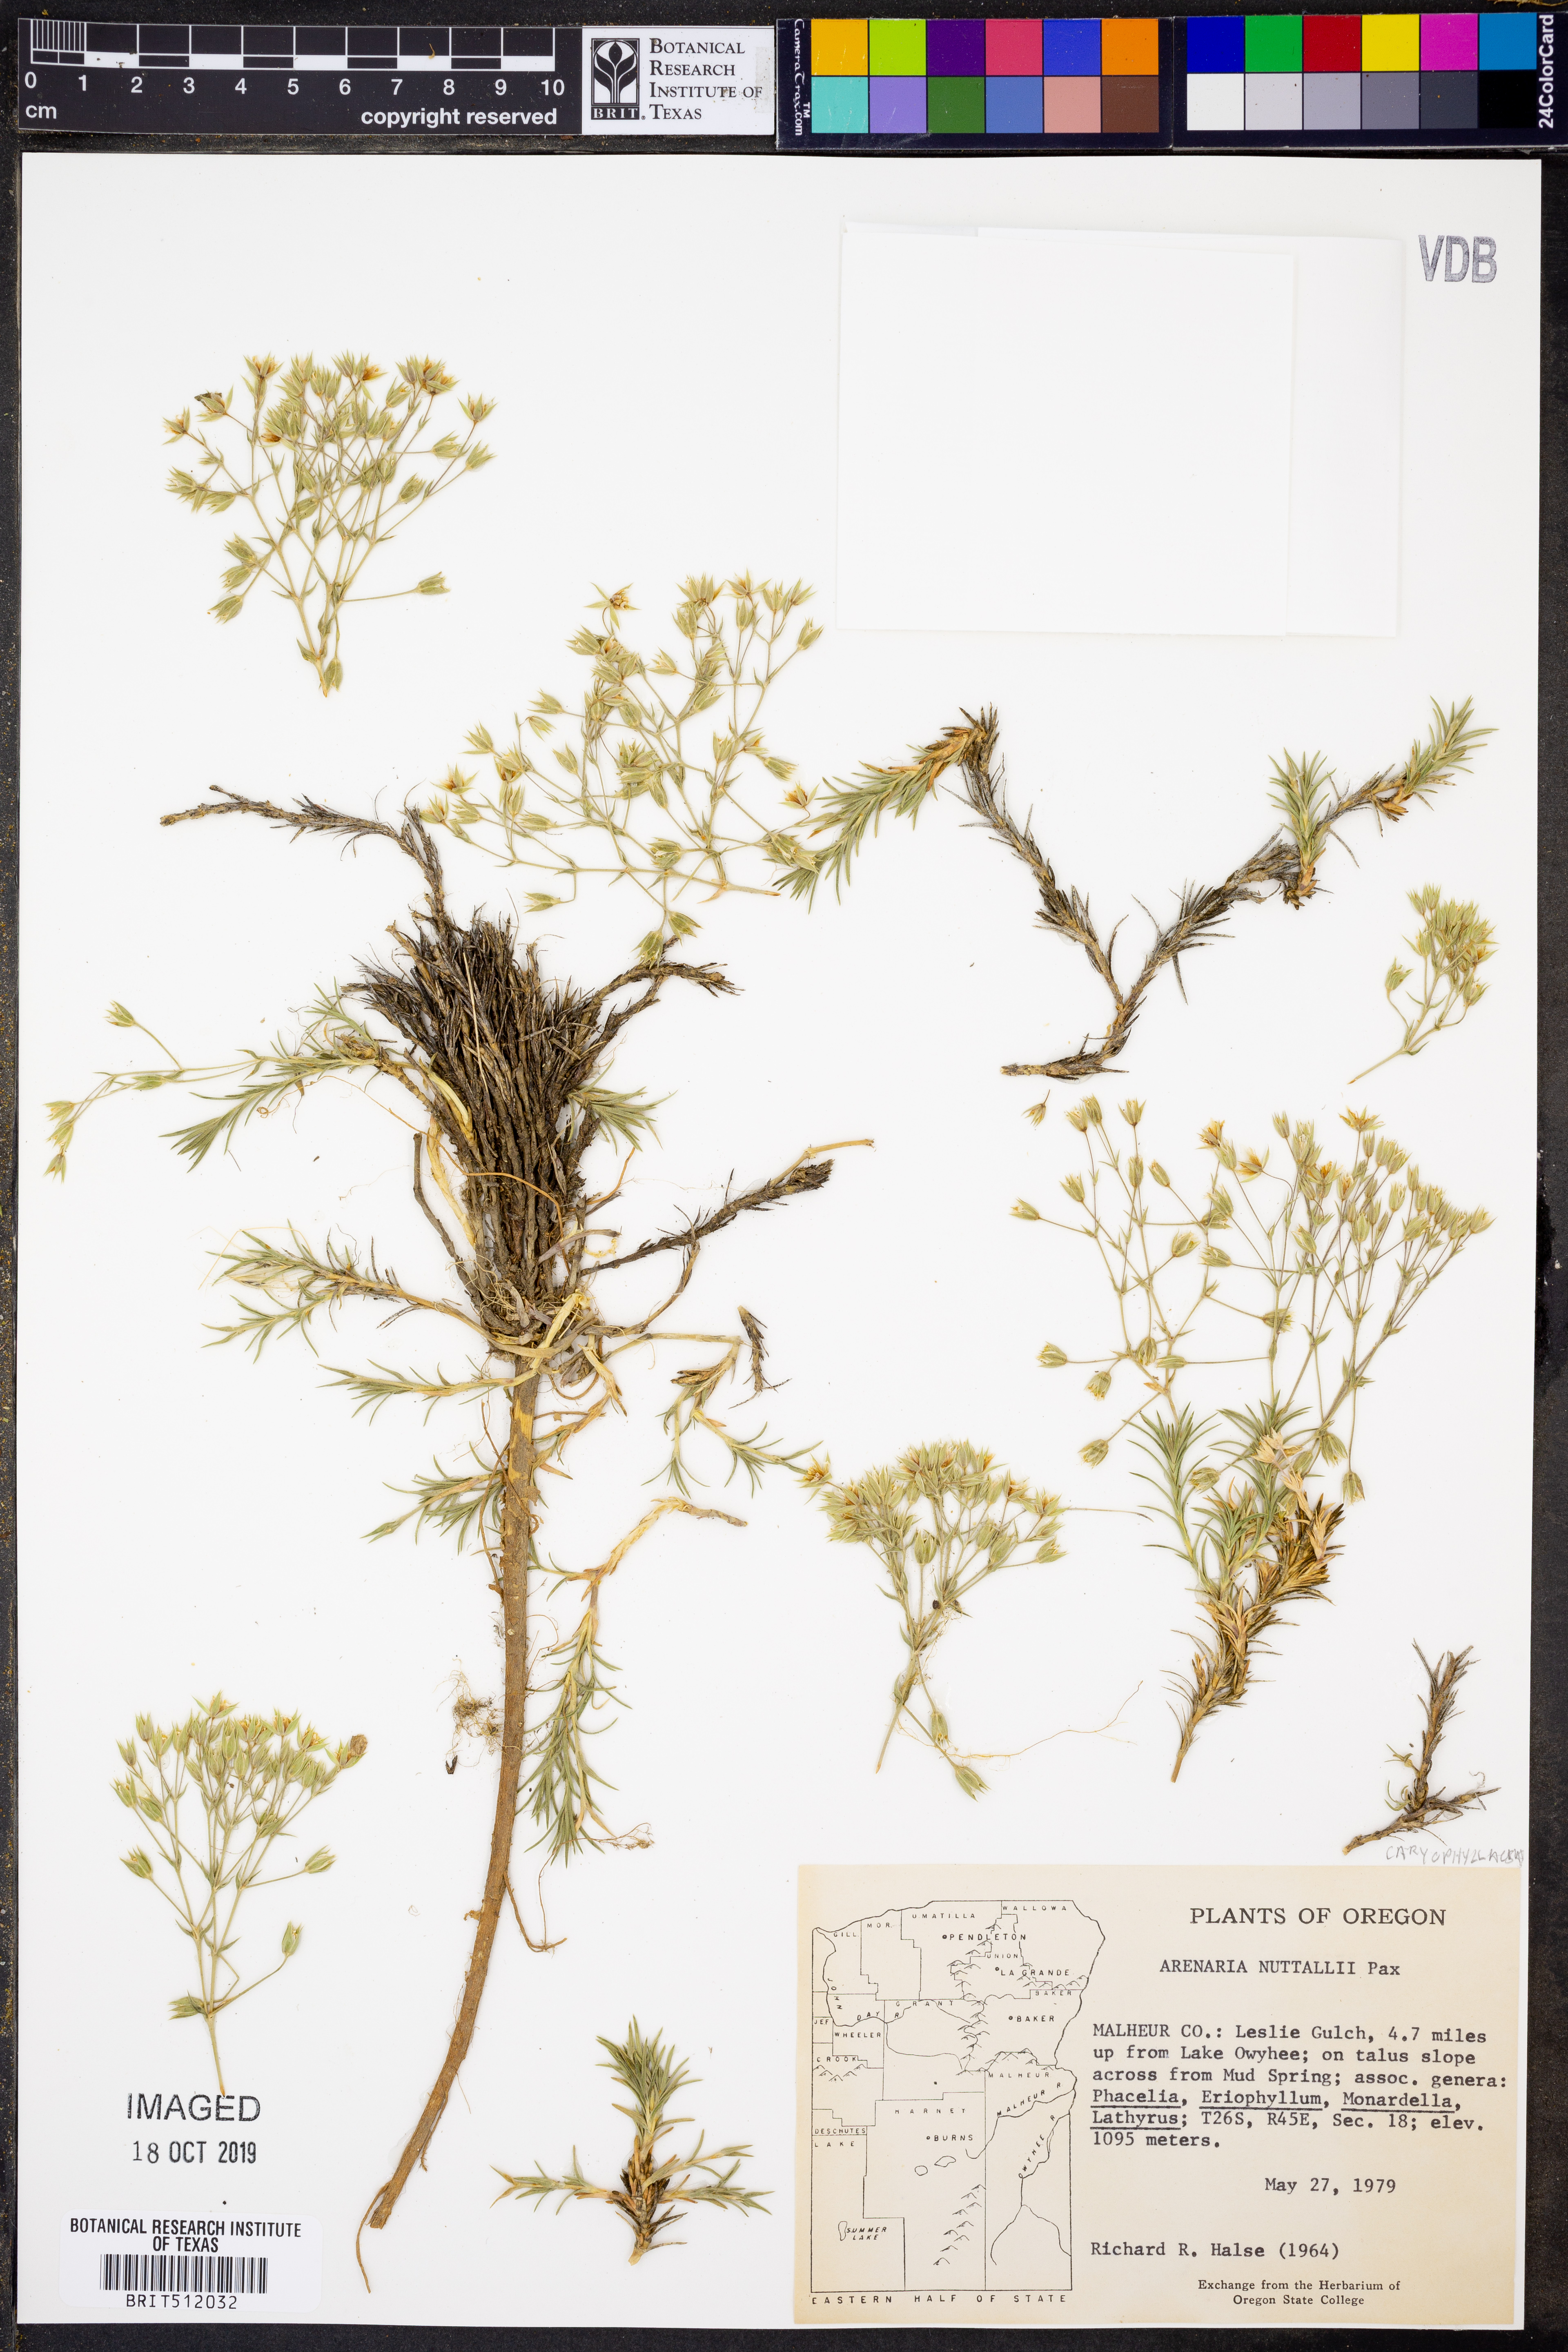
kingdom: Plantae
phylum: Tracheophyta
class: Magnoliopsida
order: Caryophyllales
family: Caryophyllaceae
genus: Sabulina
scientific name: Sabulina nuttallii
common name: Nuttall's stitchwort
